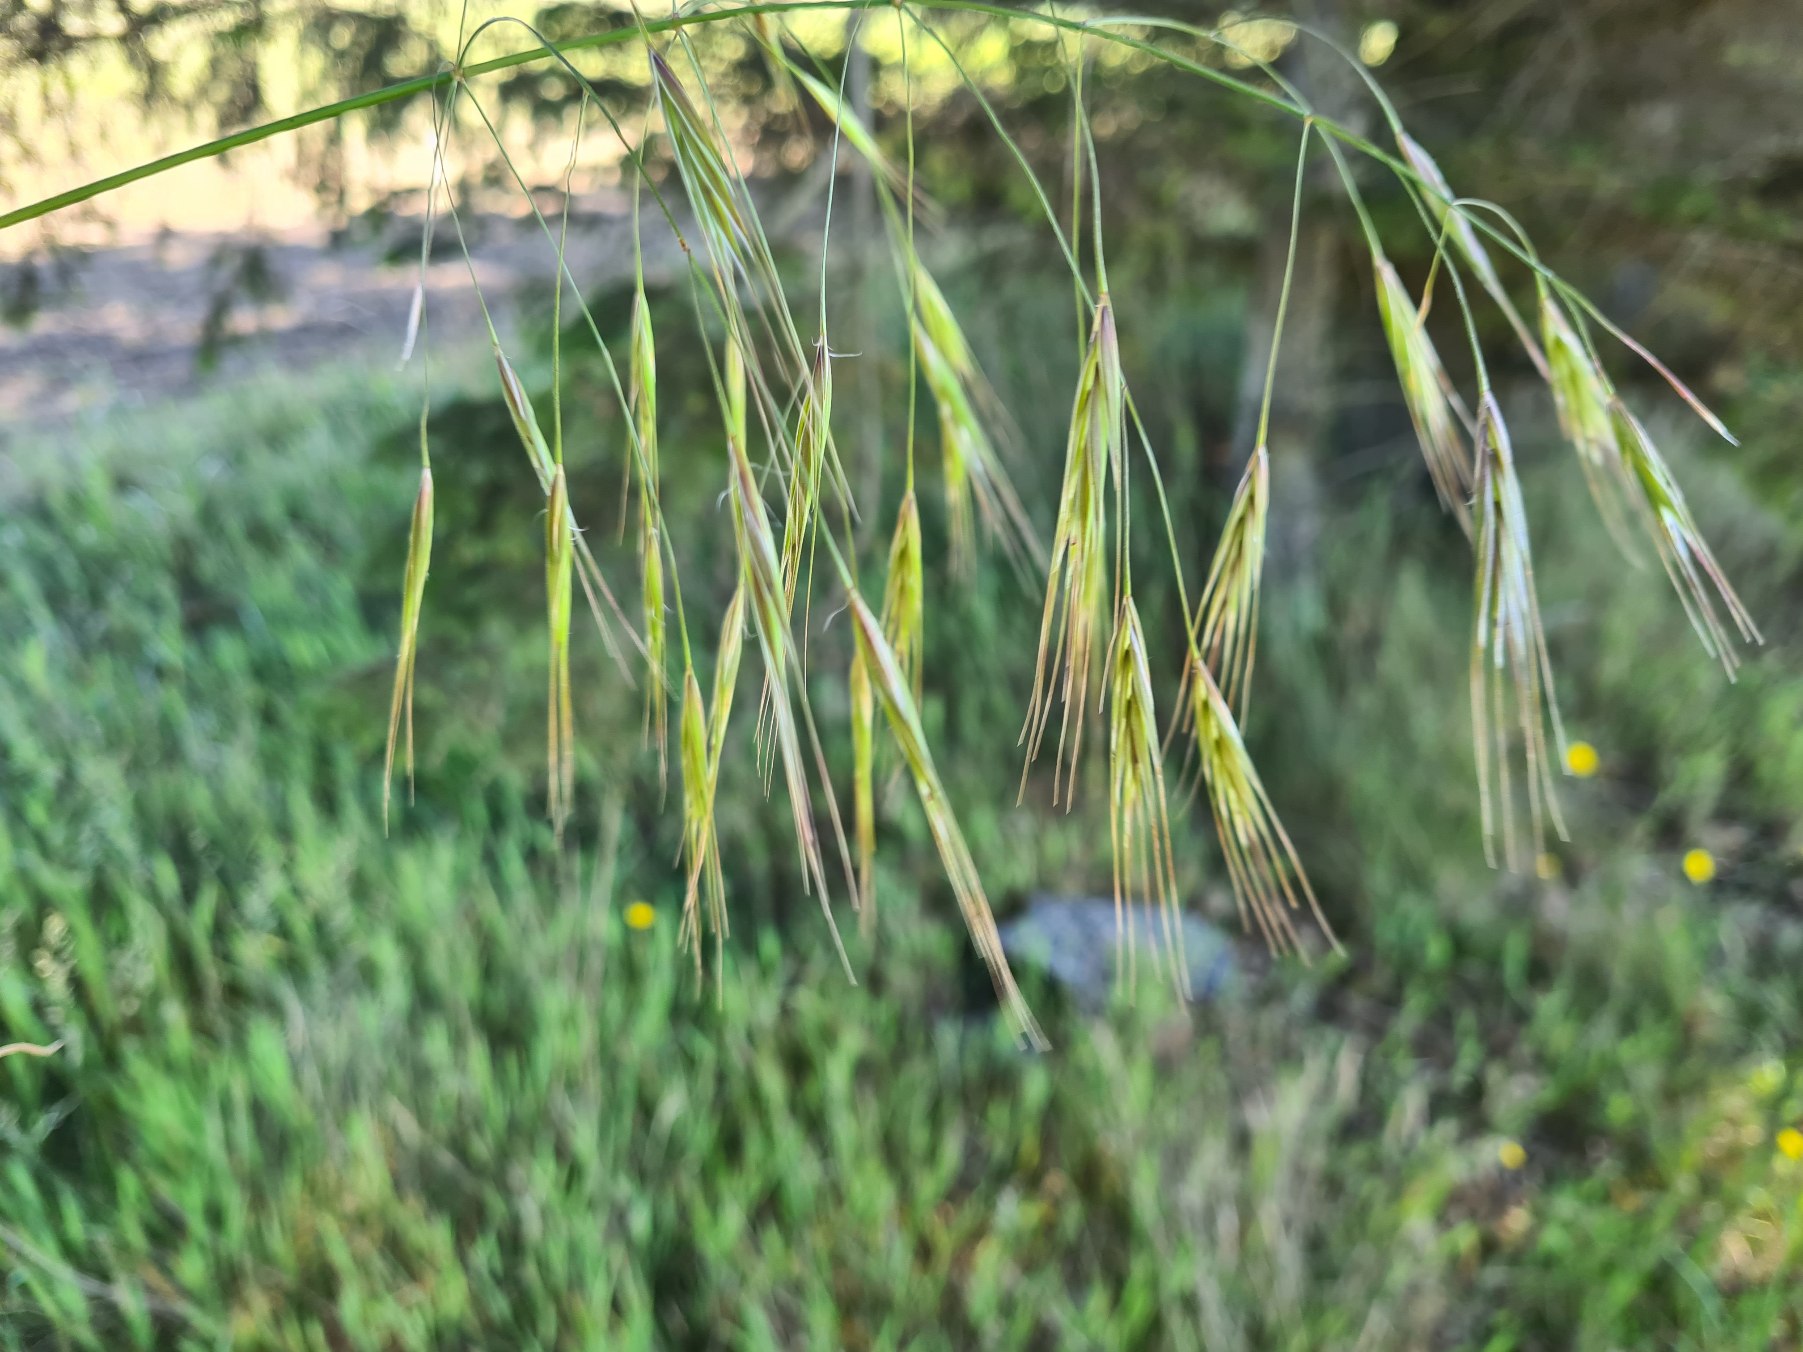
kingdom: Plantae
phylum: Tracheophyta
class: Liliopsida
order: Poales
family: Poaceae
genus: Bromus
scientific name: Bromus sterilis
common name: Gold hejre
